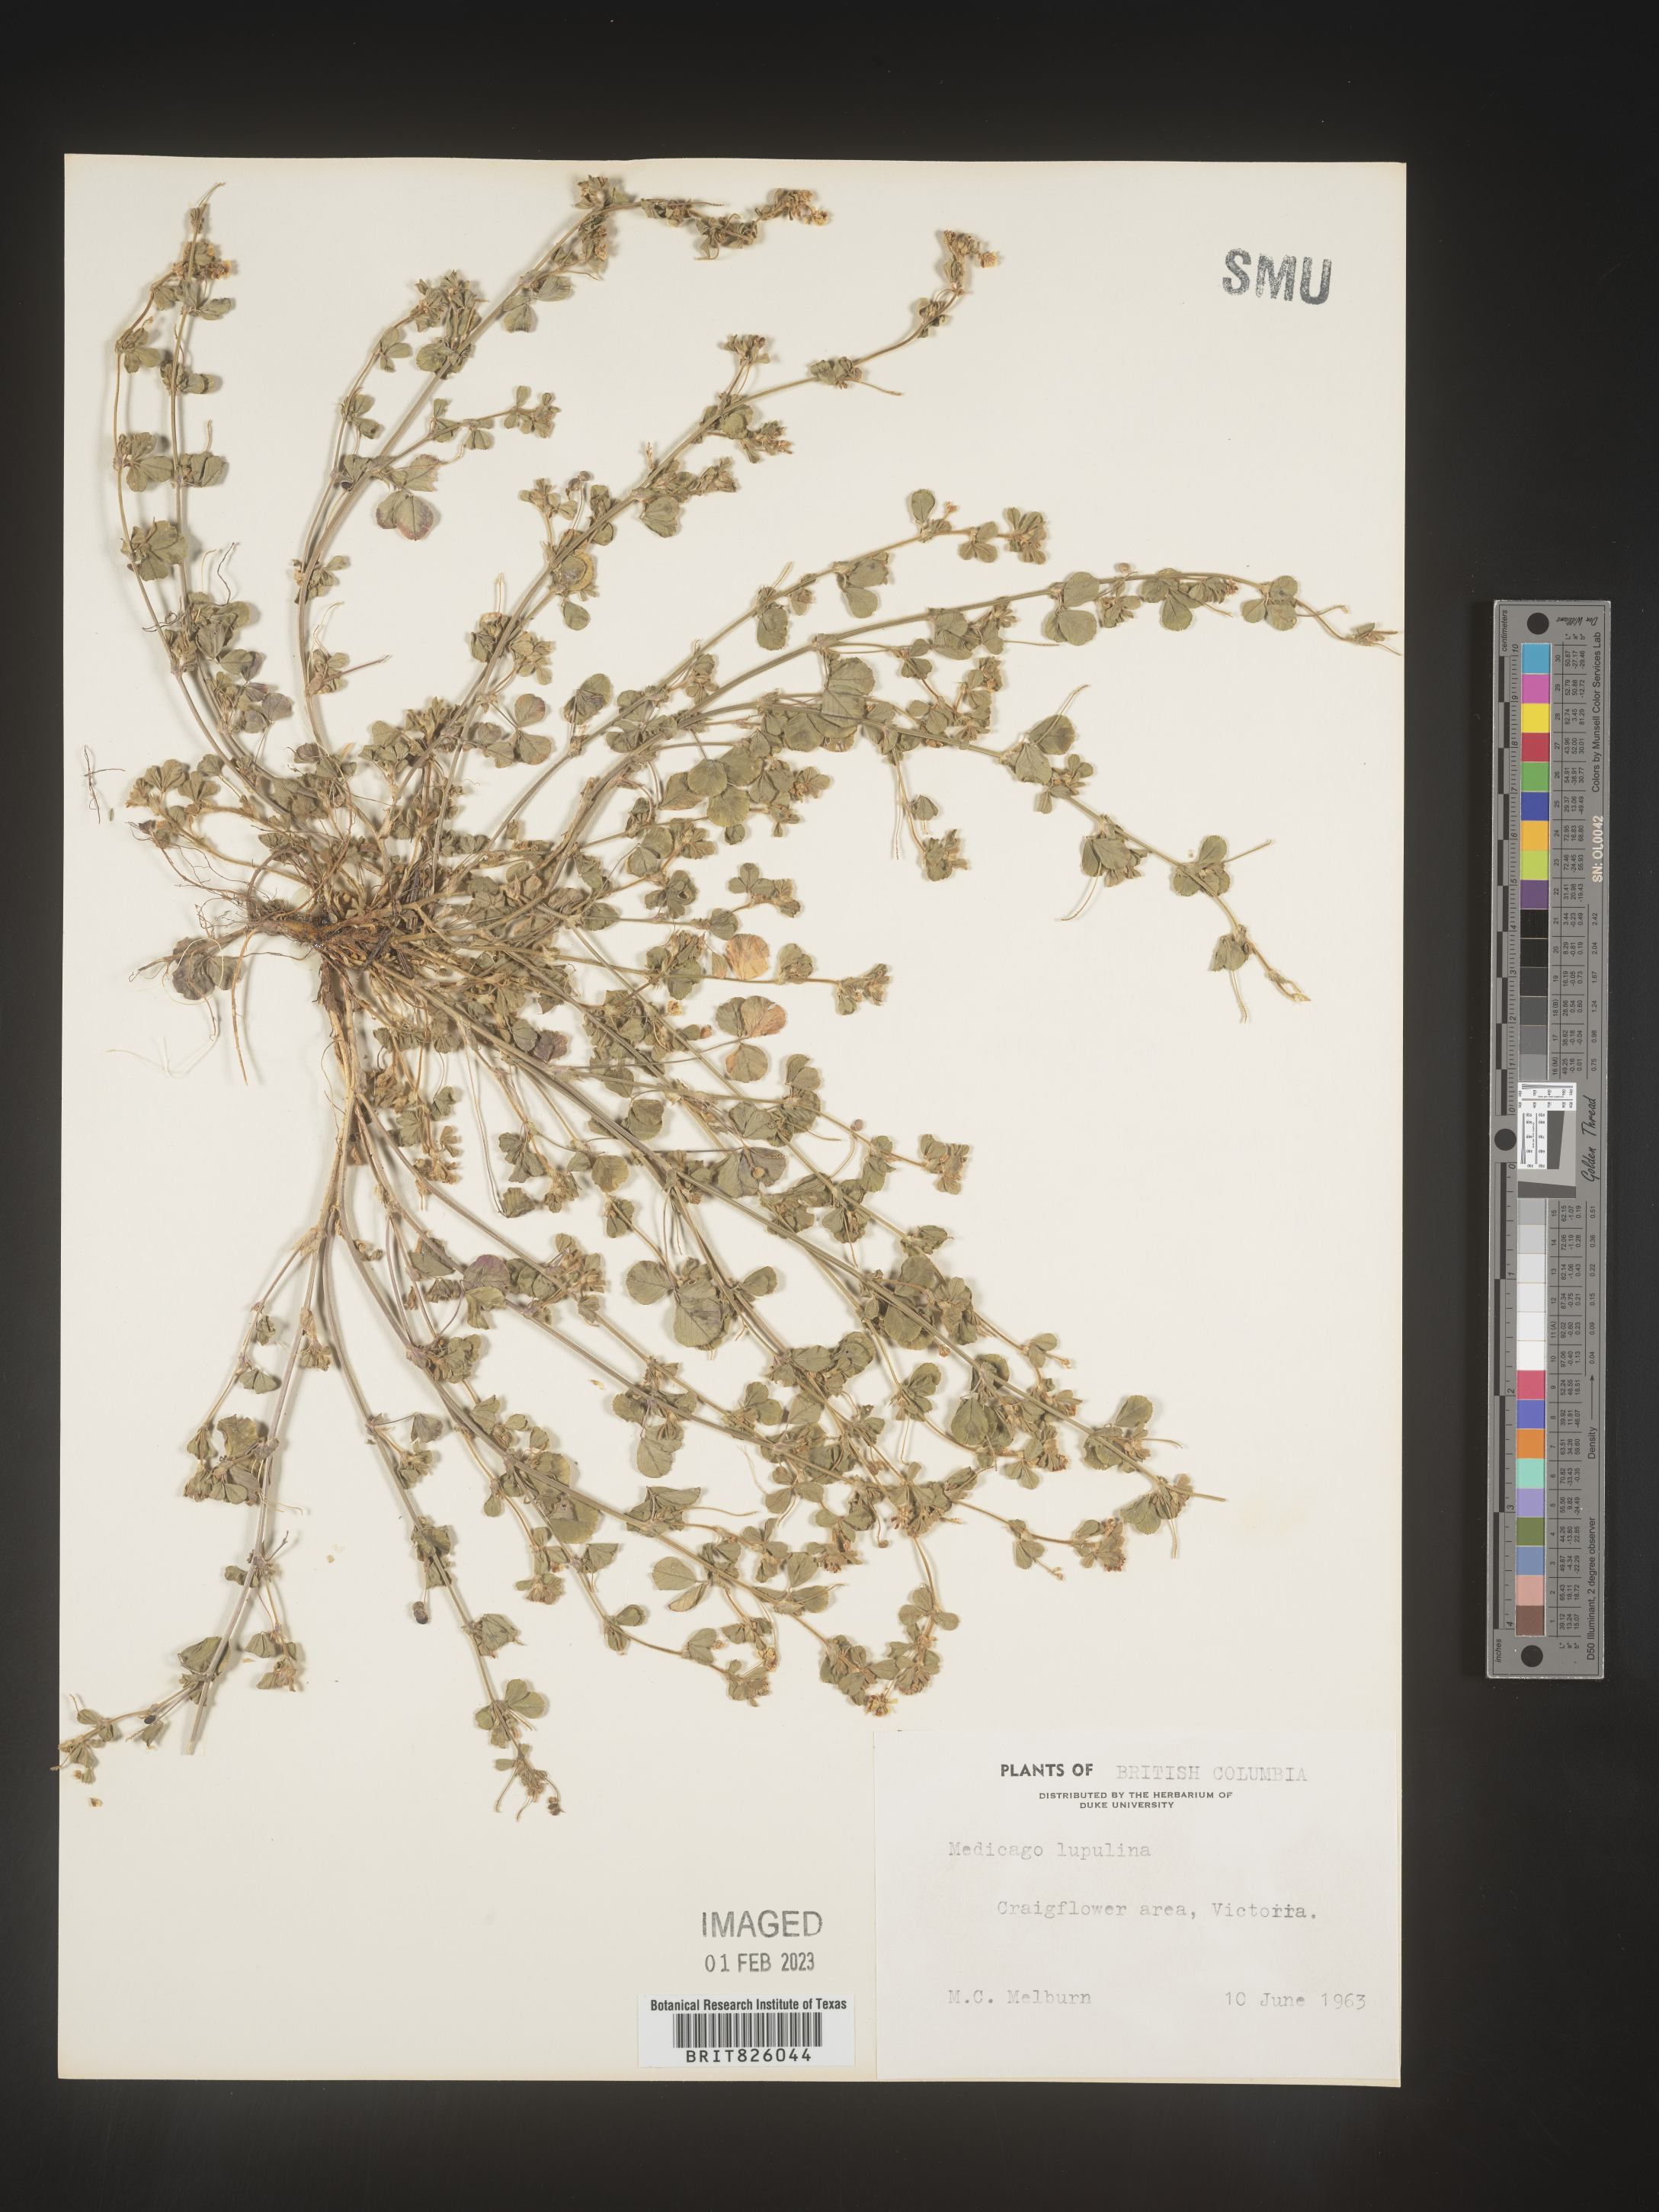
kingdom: Plantae
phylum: Tracheophyta
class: Magnoliopsida
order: Fabales
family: Fabaceae
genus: Medicago
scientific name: Medicago lupulina
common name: Black medick
